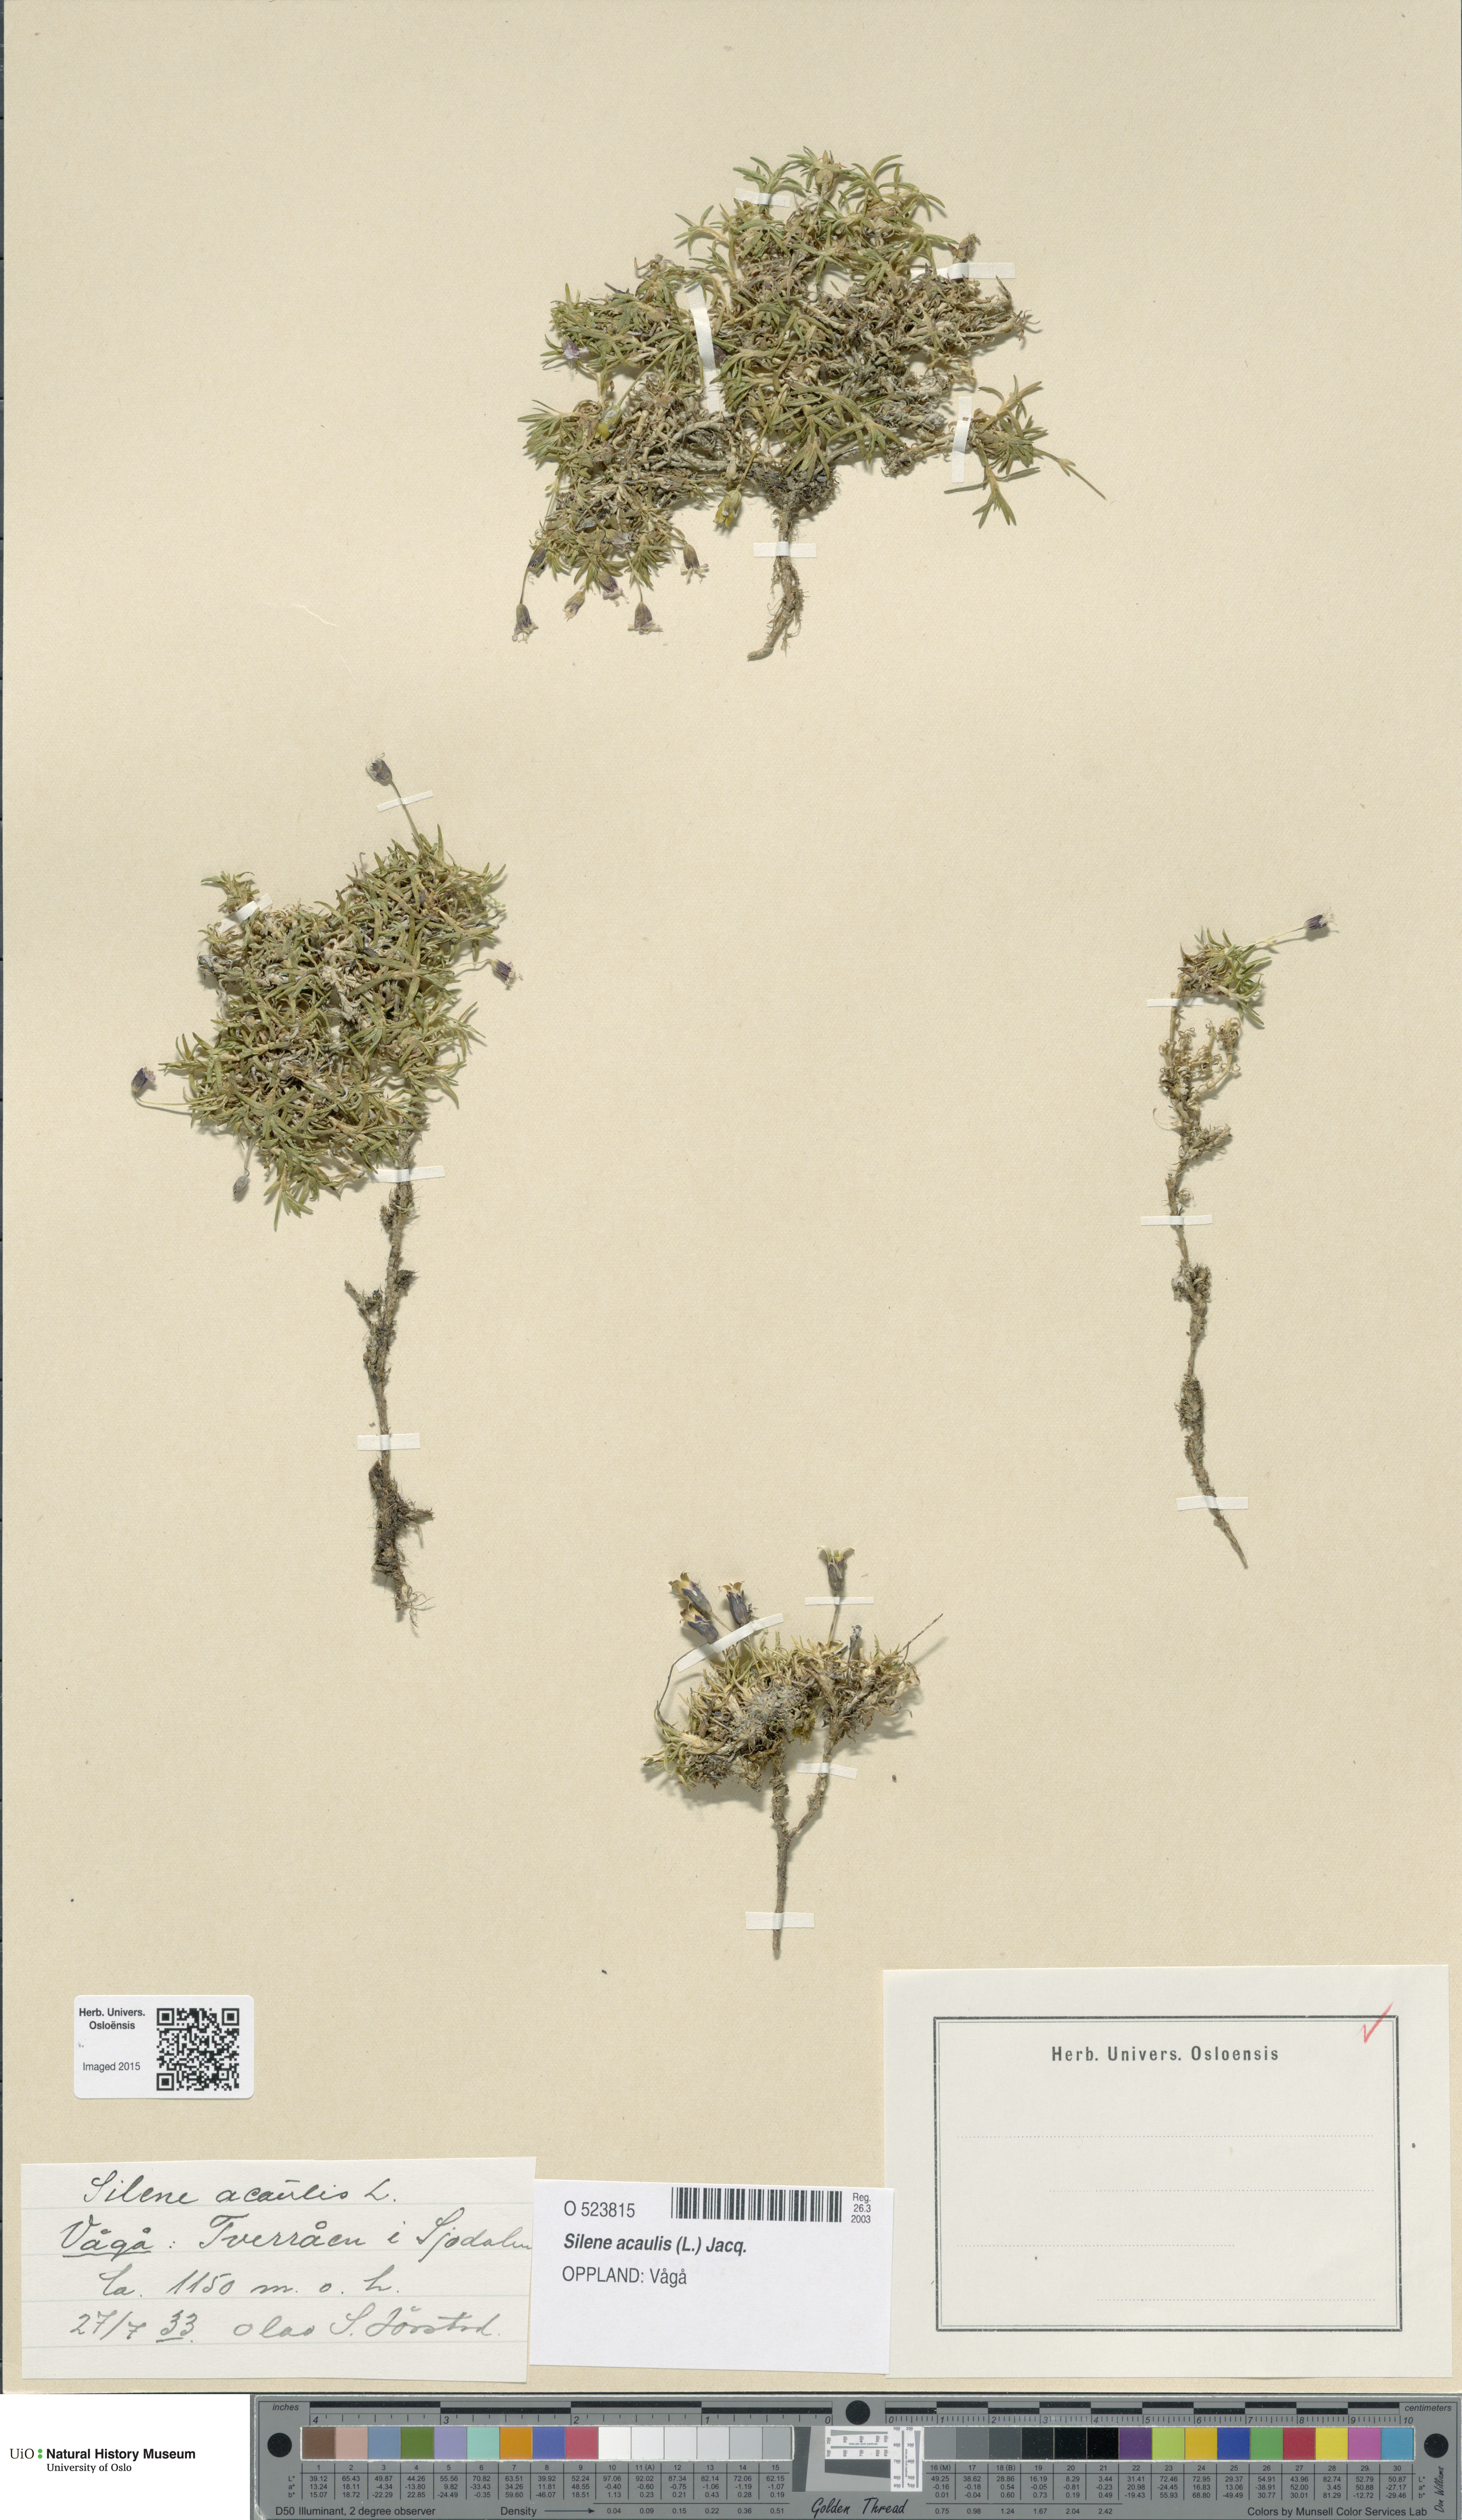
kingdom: Plantae
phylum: Tracheophyta
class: Magnoliopsida
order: Caryophyllales
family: Caryophyllaceae
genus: Silene
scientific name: Silene acaulis
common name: Moss campion
